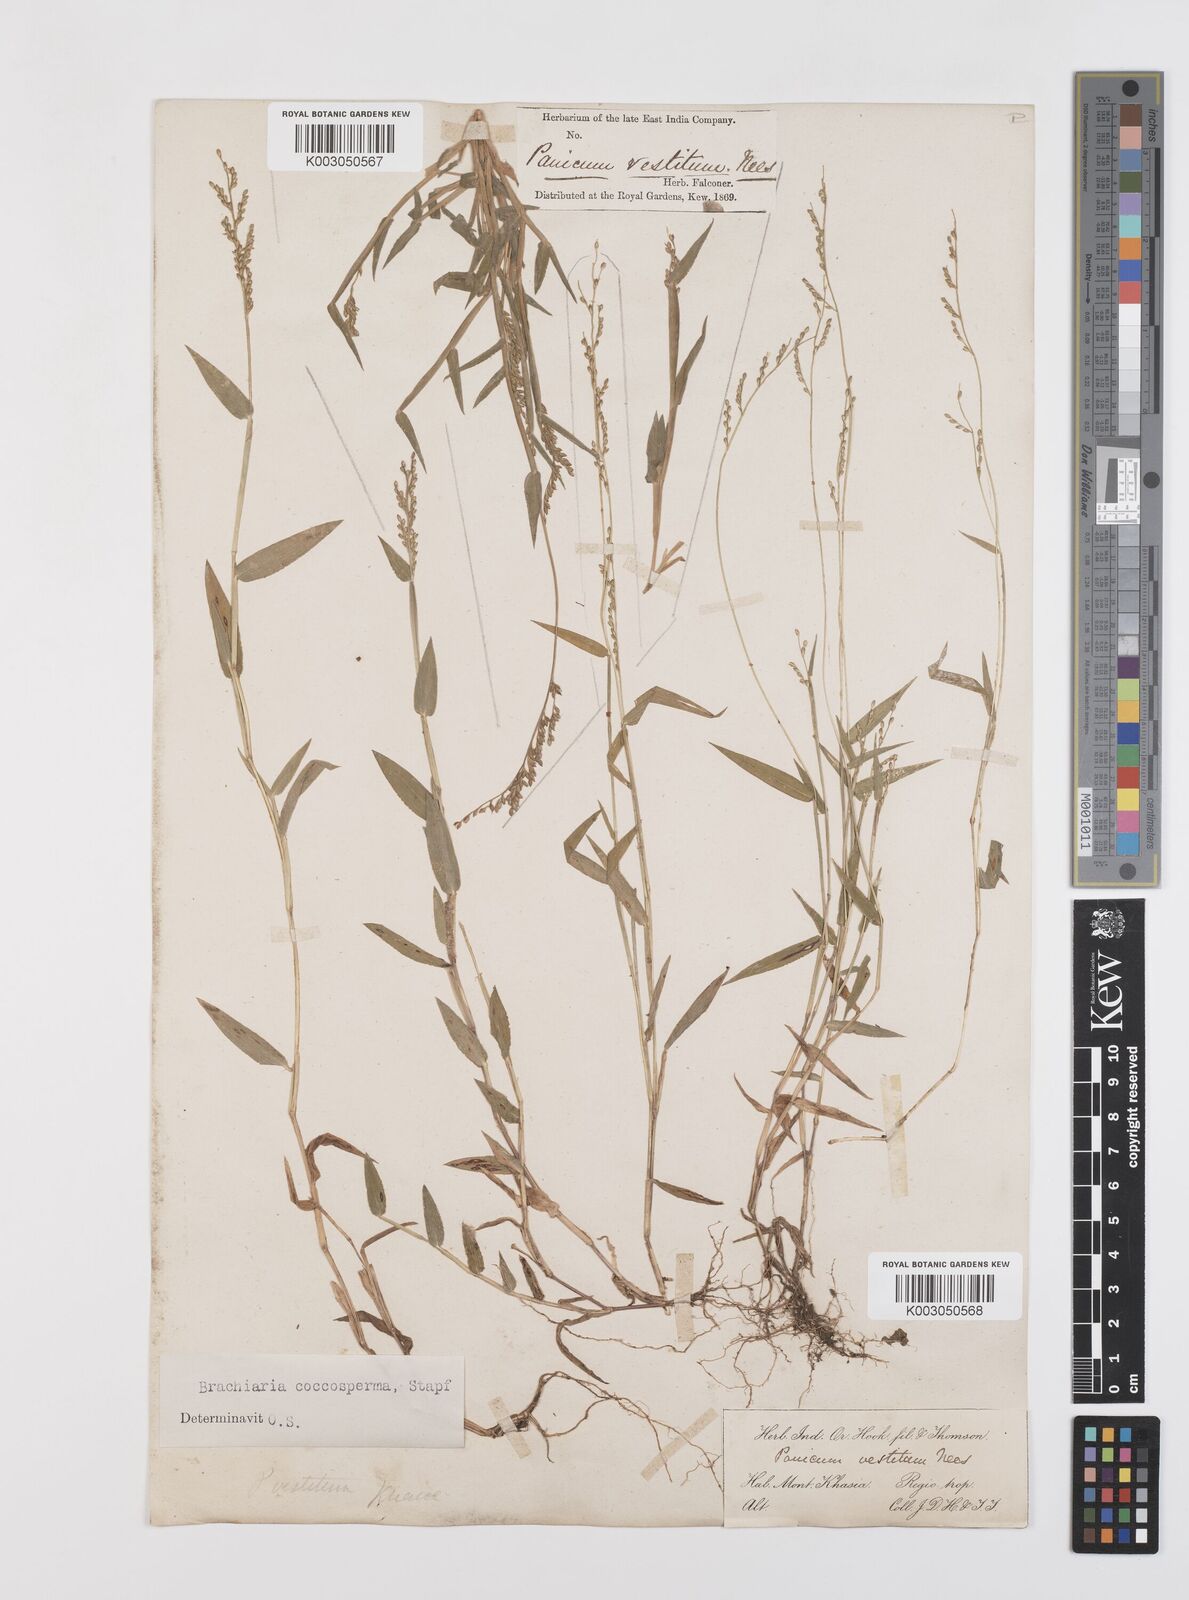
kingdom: Plantae
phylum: Tracheophyta
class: Liliopsida
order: Poales
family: Poaceae
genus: Urochloa
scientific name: Urochloa villosa
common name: Hairy signalgrass
